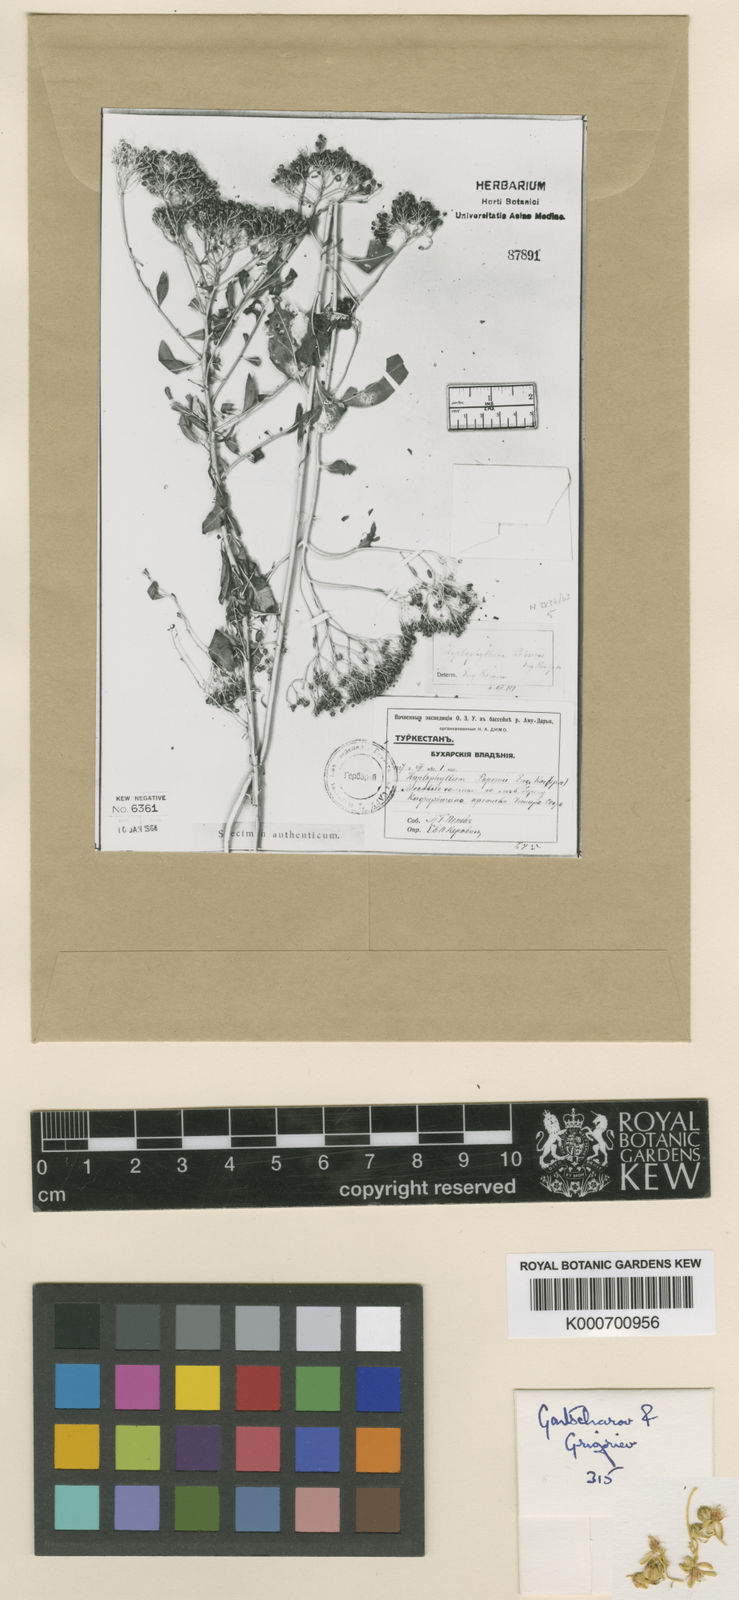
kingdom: Plantae
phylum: Tracheophyta
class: Magnoliopsida
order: Sapindales
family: Rutaceae
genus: Haplophyllum
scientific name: Haplophyllum
